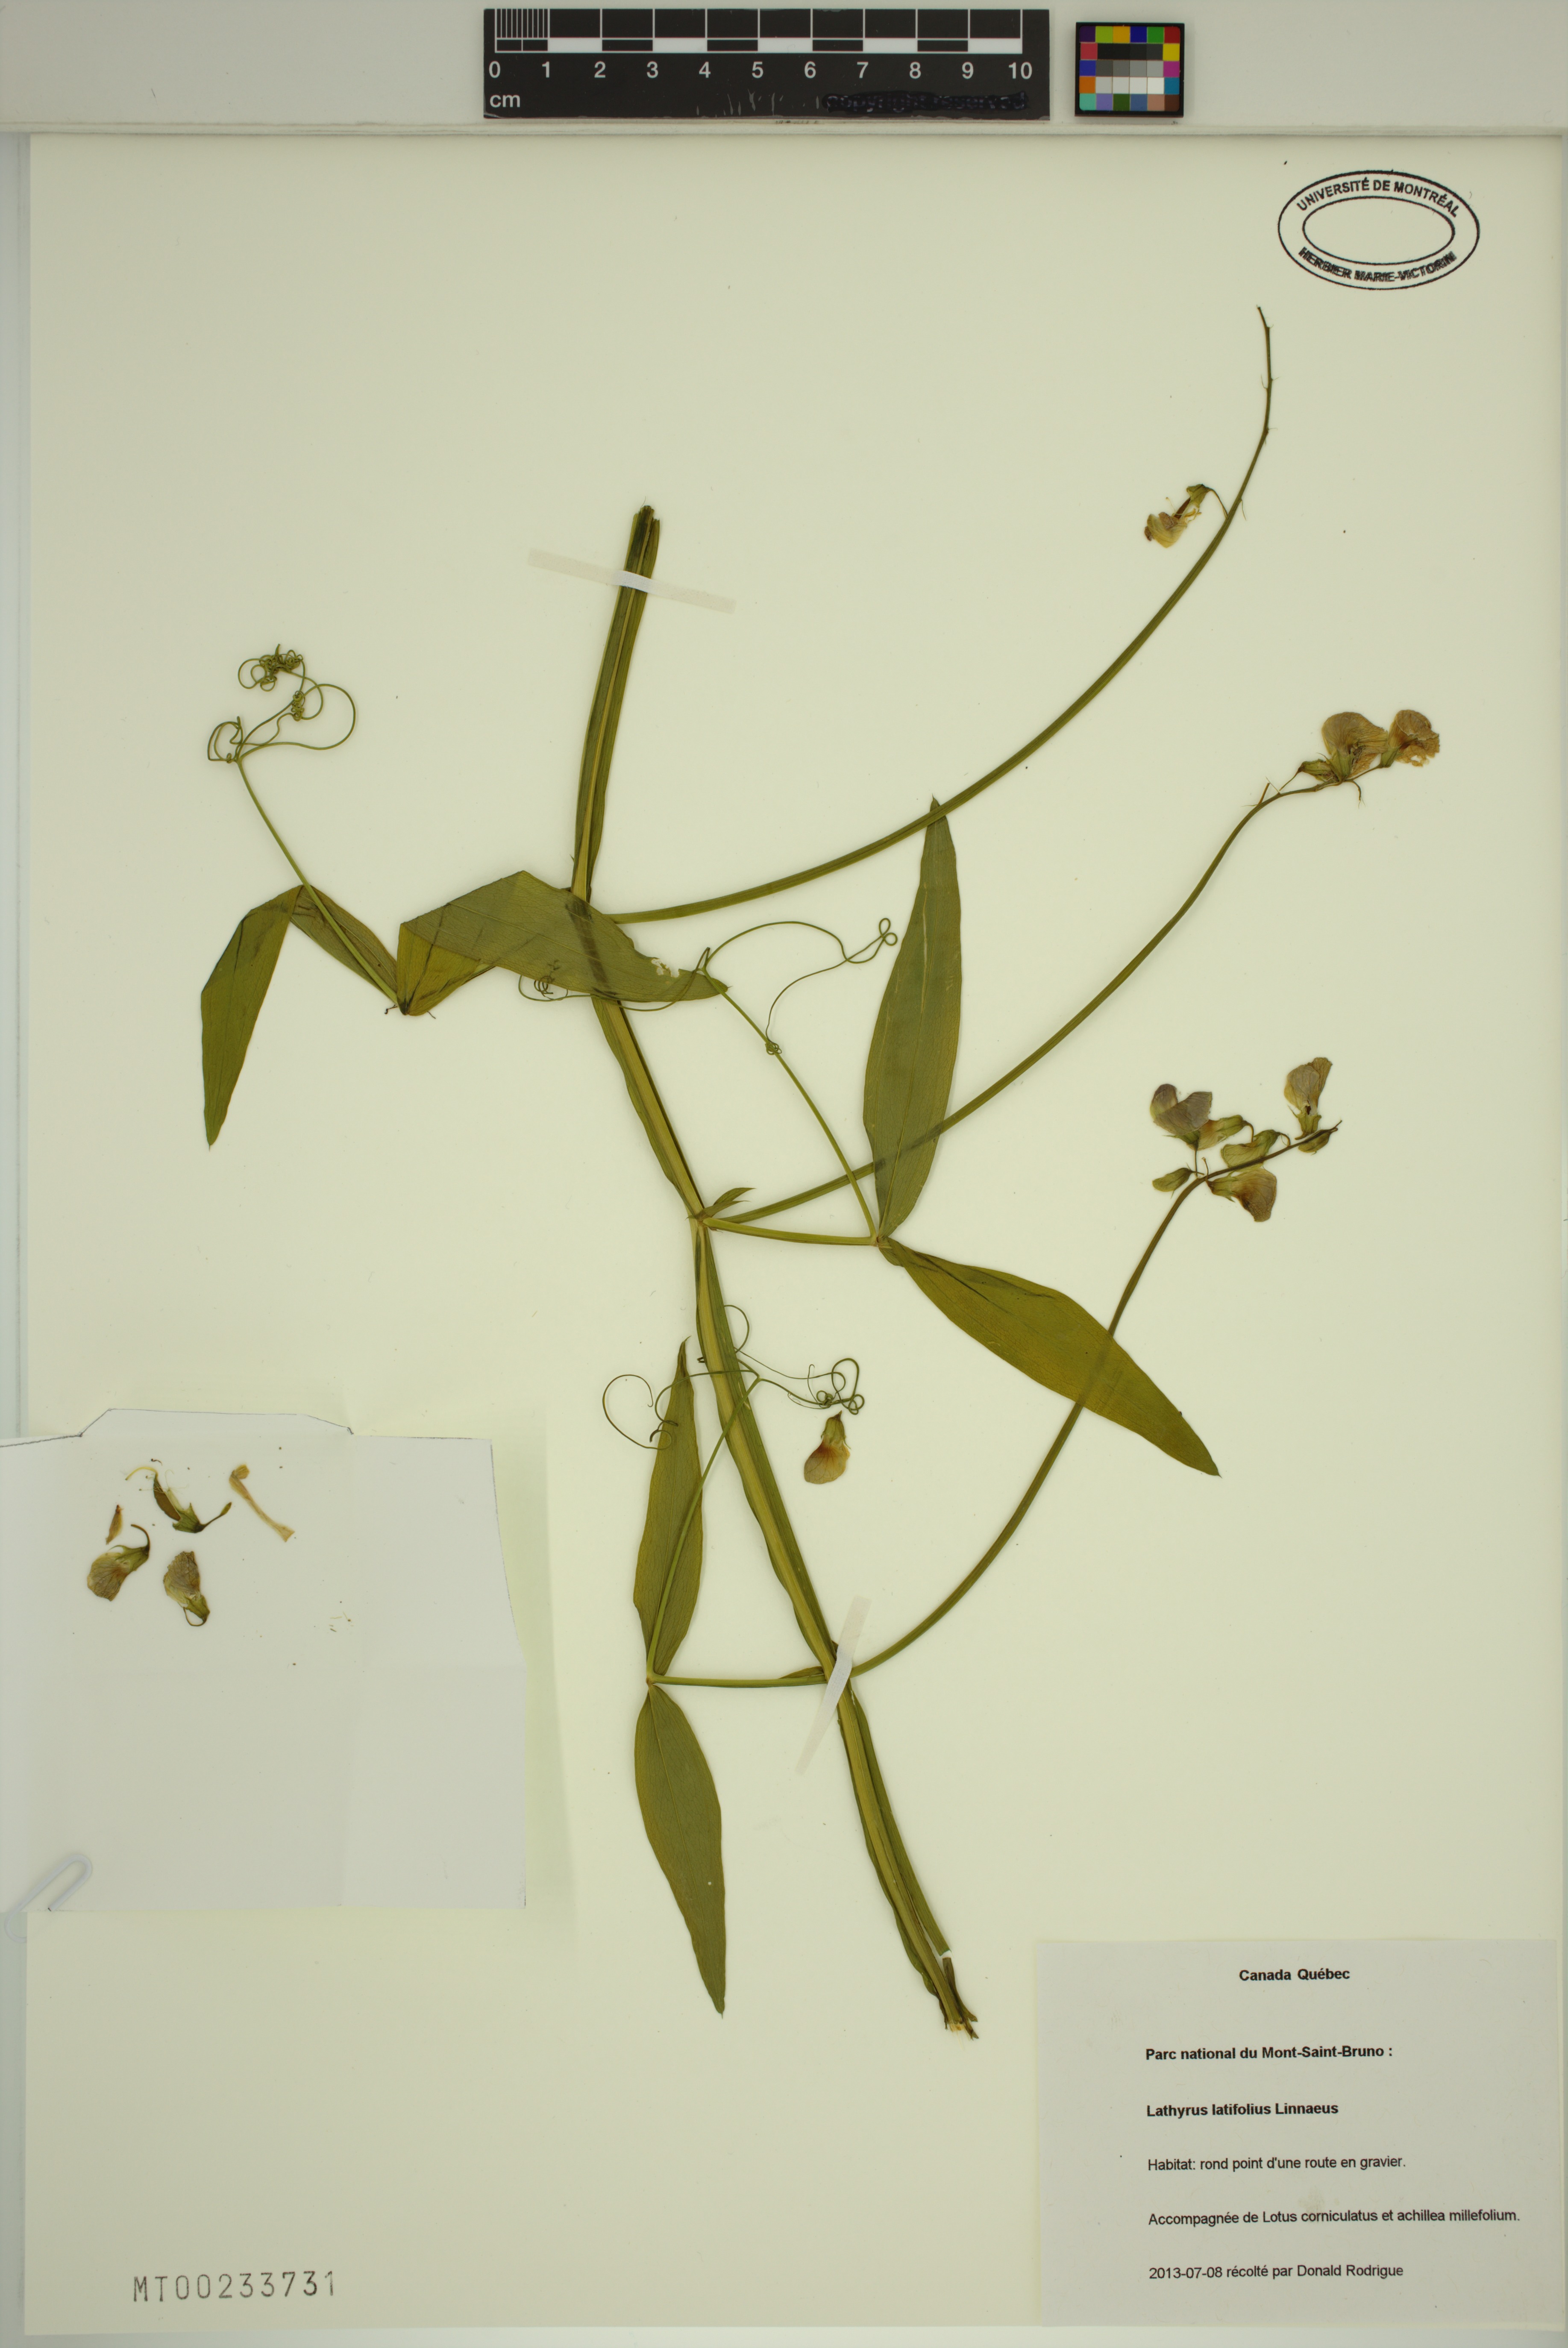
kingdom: Plantae
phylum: Tracheophyta
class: Magnoliopsida
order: Fabales
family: Fabaceae
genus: Lathyrus
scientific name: Lathyrus latifolius
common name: Perennial pea
